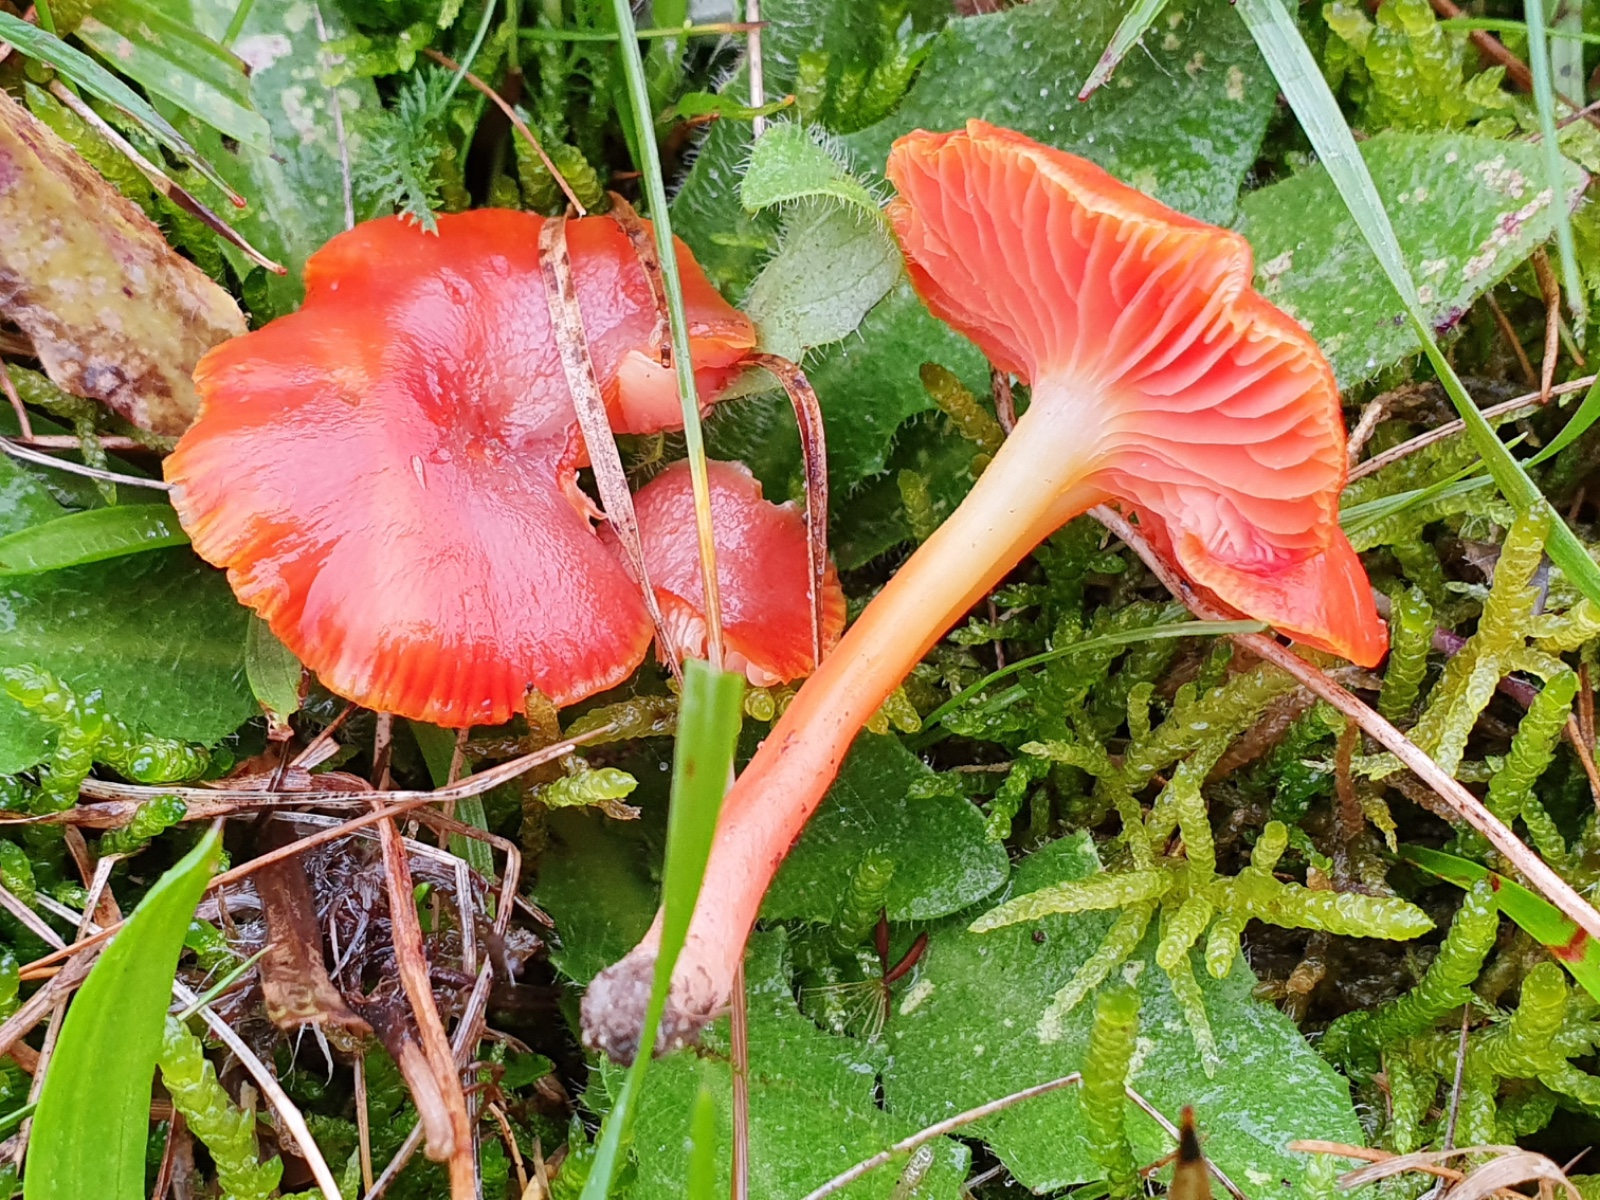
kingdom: Fungi
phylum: Basidiomycota
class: Agaricomycetes
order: Agaricales
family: Hygrophoraceae
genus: Hygrocybe
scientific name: Hygrocybe phaeococcinea
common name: sortdugget vokshat
